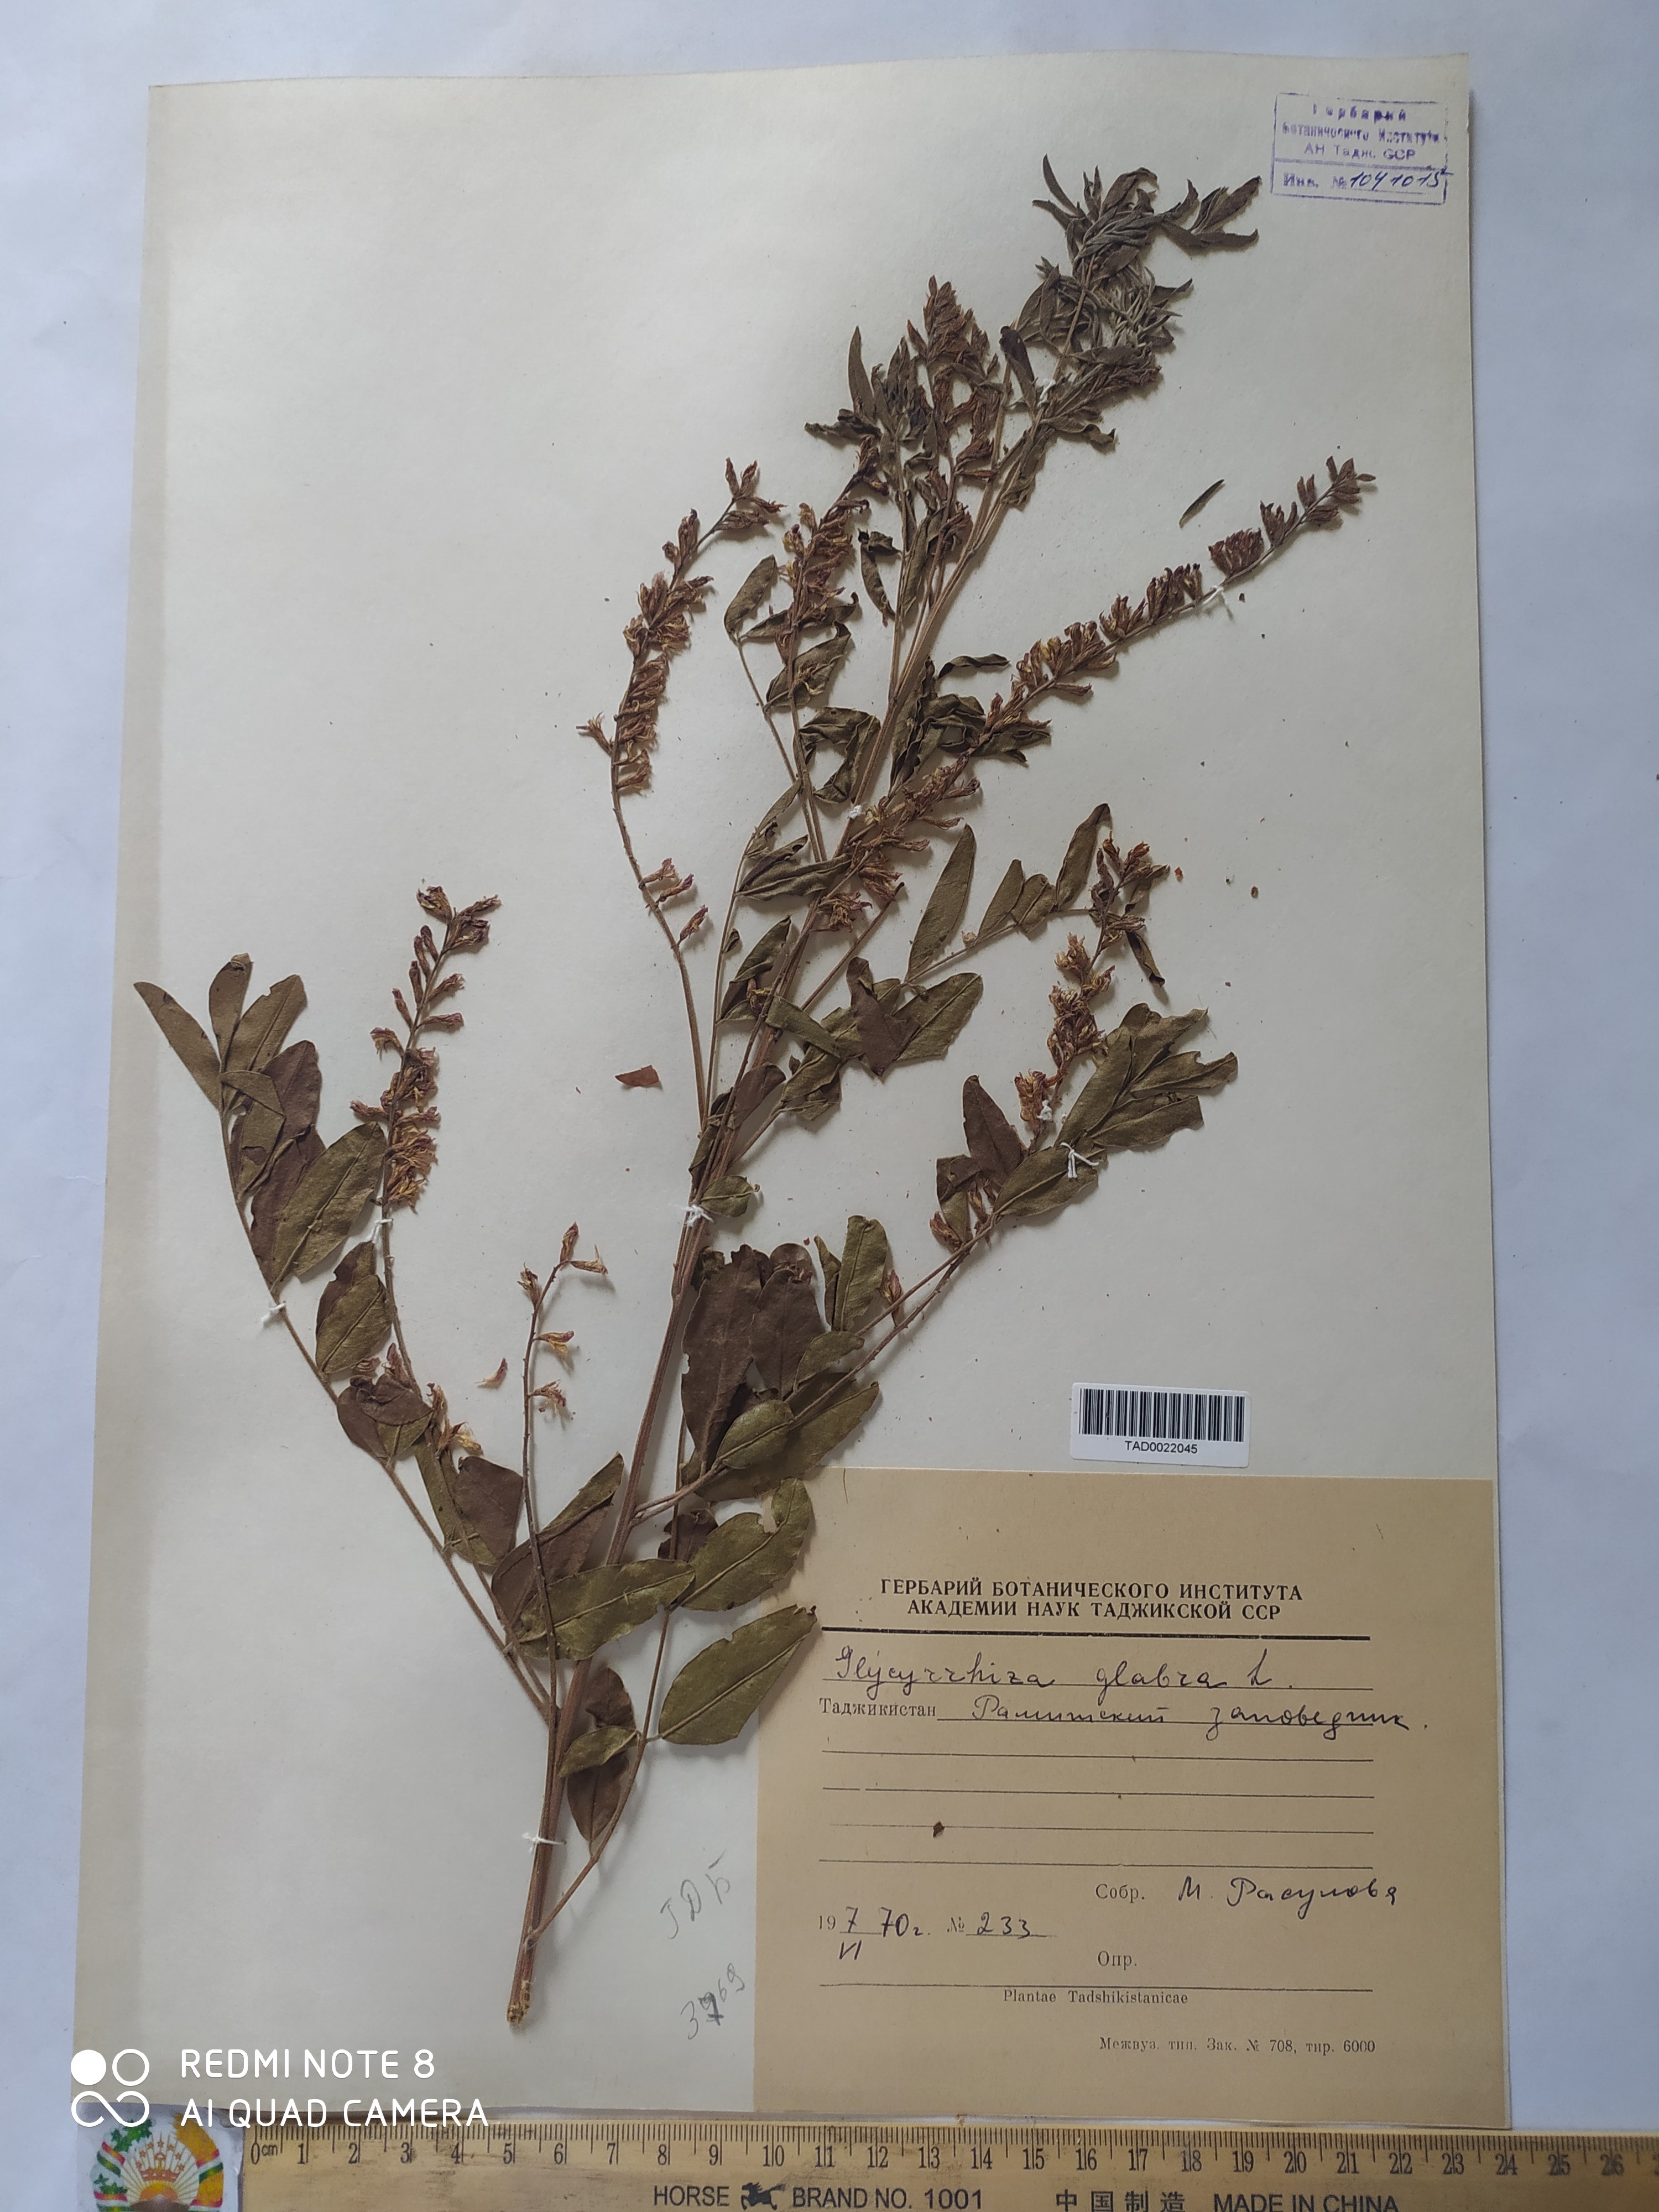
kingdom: Plantae
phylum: Tracheophyta
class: Magnoliopsida
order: Fabales
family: Fabaceae
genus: Glycyrrhiza
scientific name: Glycyrrhiza glabra
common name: Liquorice
